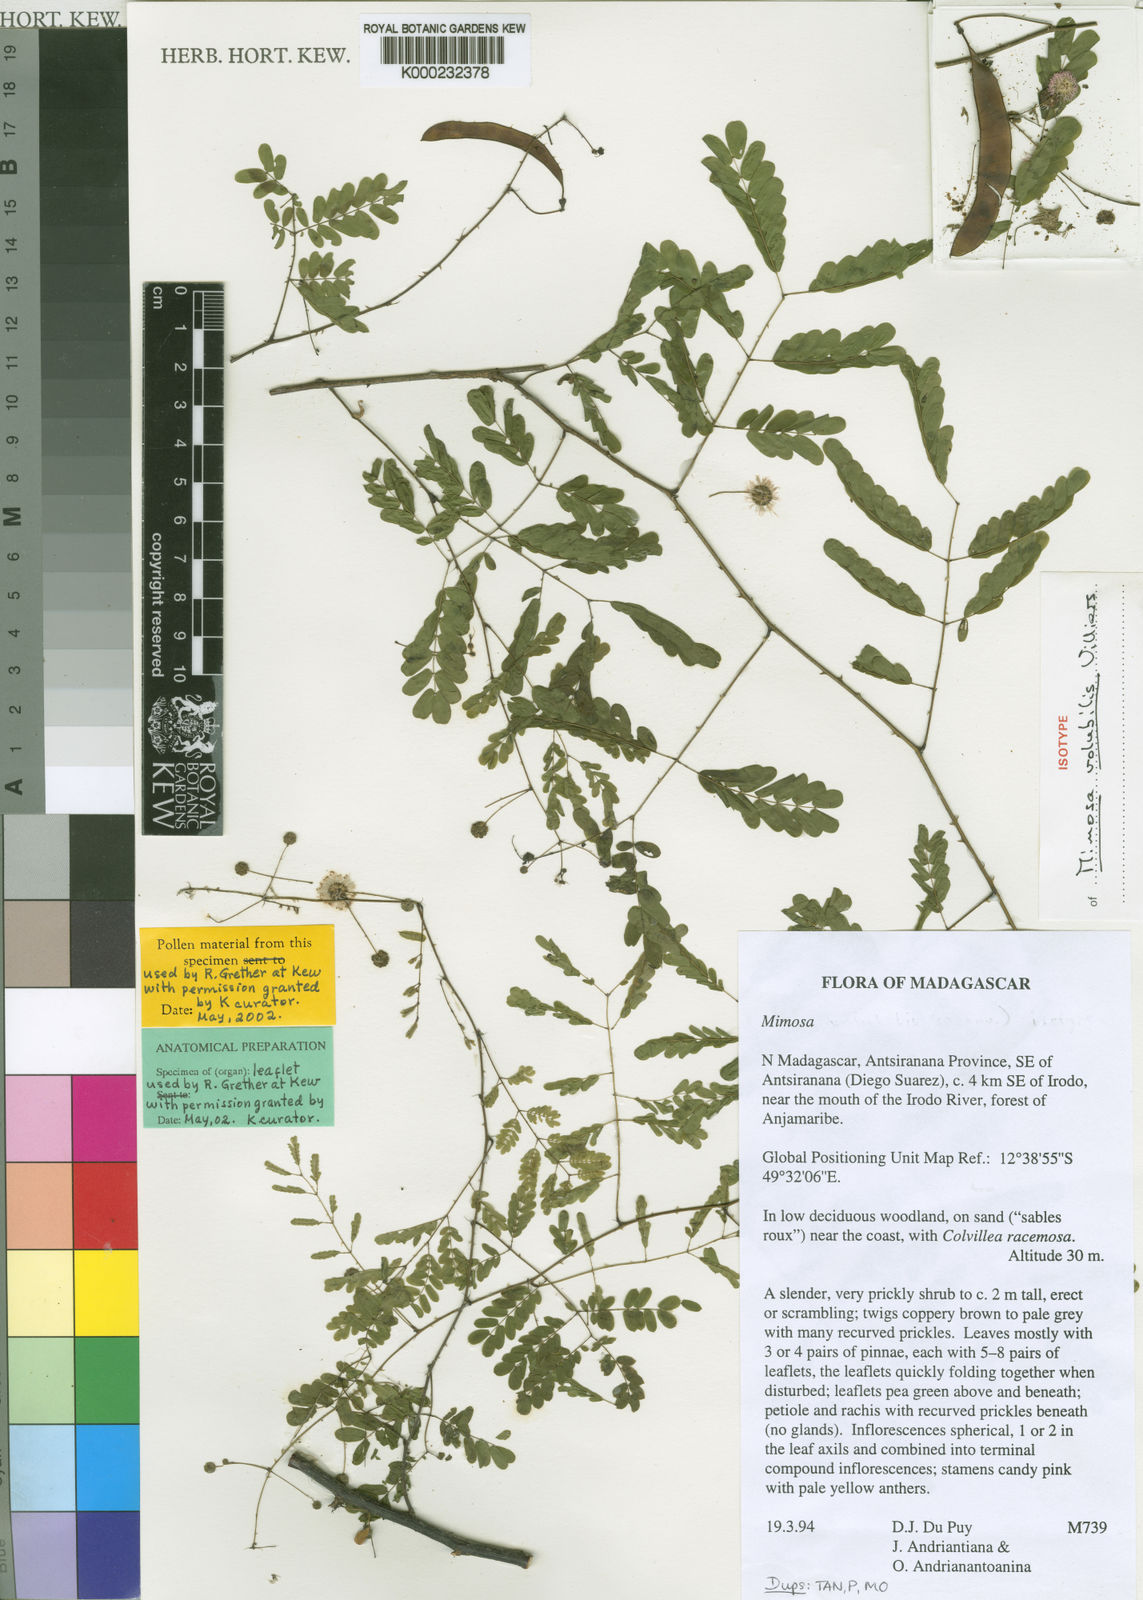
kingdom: Plantae
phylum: Tracheophyta
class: Magnoliopsida
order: Fabales
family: Fabaceae
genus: Mimosa
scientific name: Mimosa volubilis
